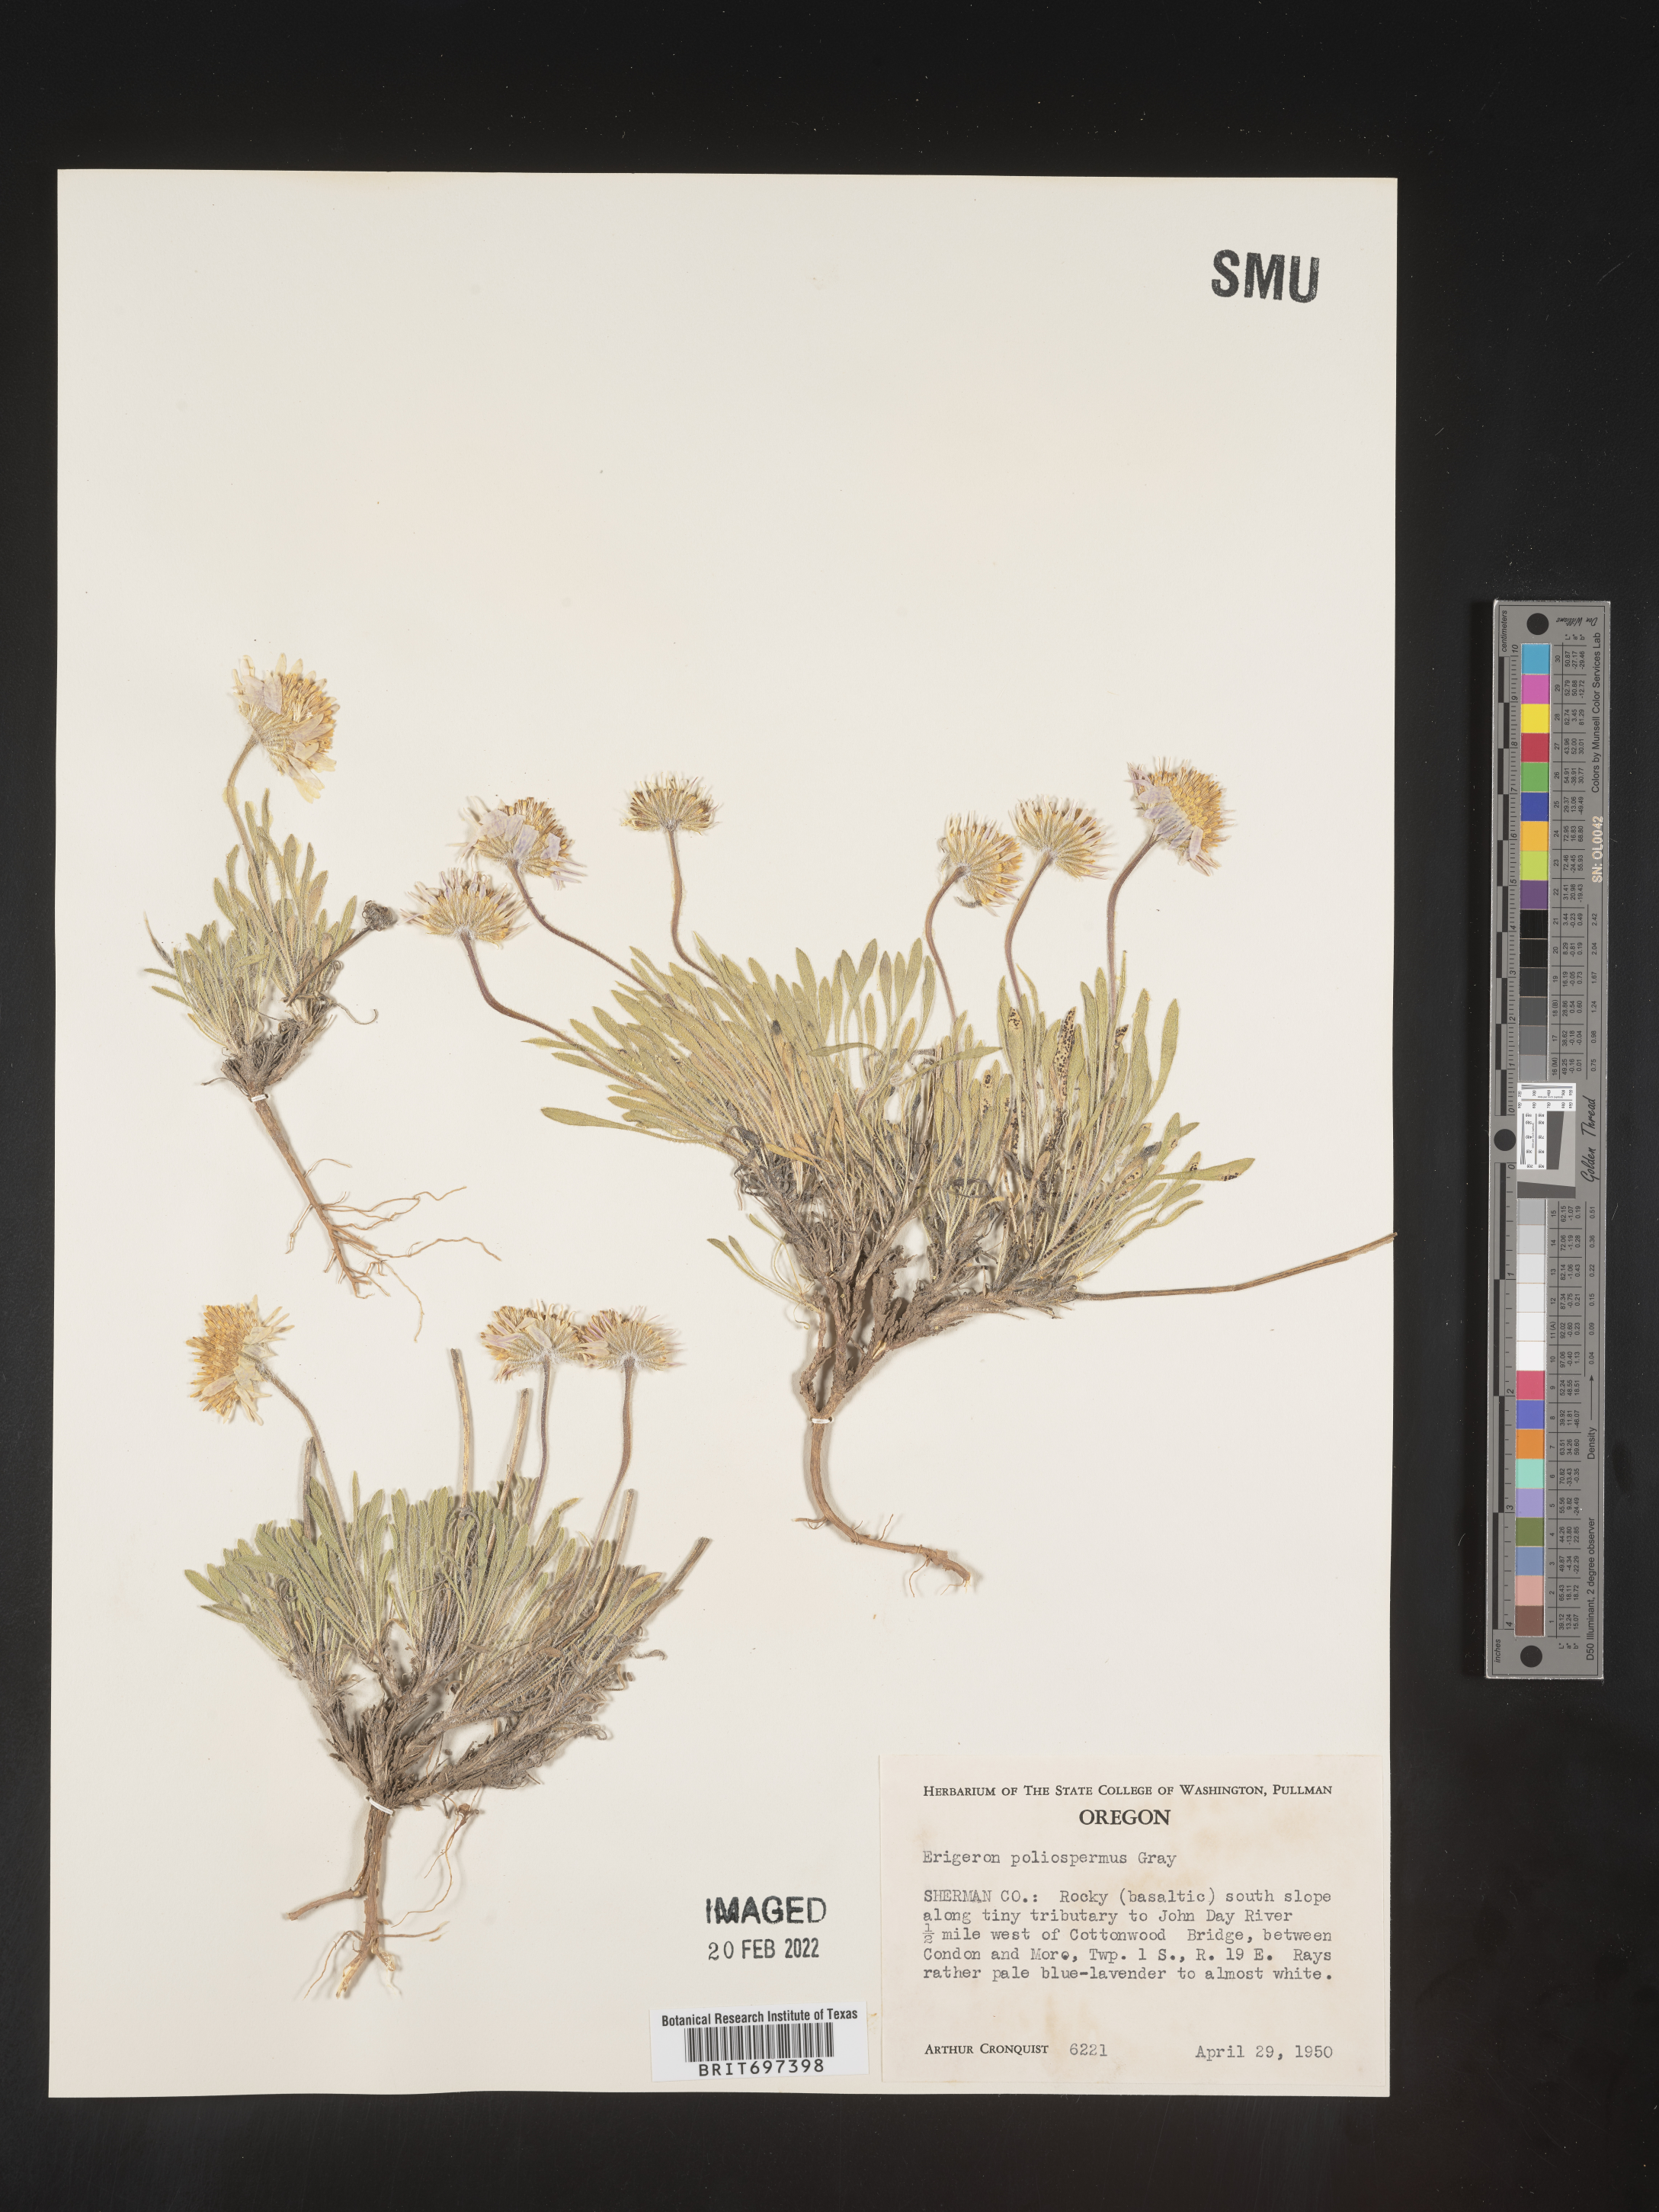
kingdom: Plantae
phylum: Tracheophyta
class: Magnoliopsida
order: Asterales
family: Asteraceae
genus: Erigeron
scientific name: Erigeron poliospermus
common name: Cushion fleabane
